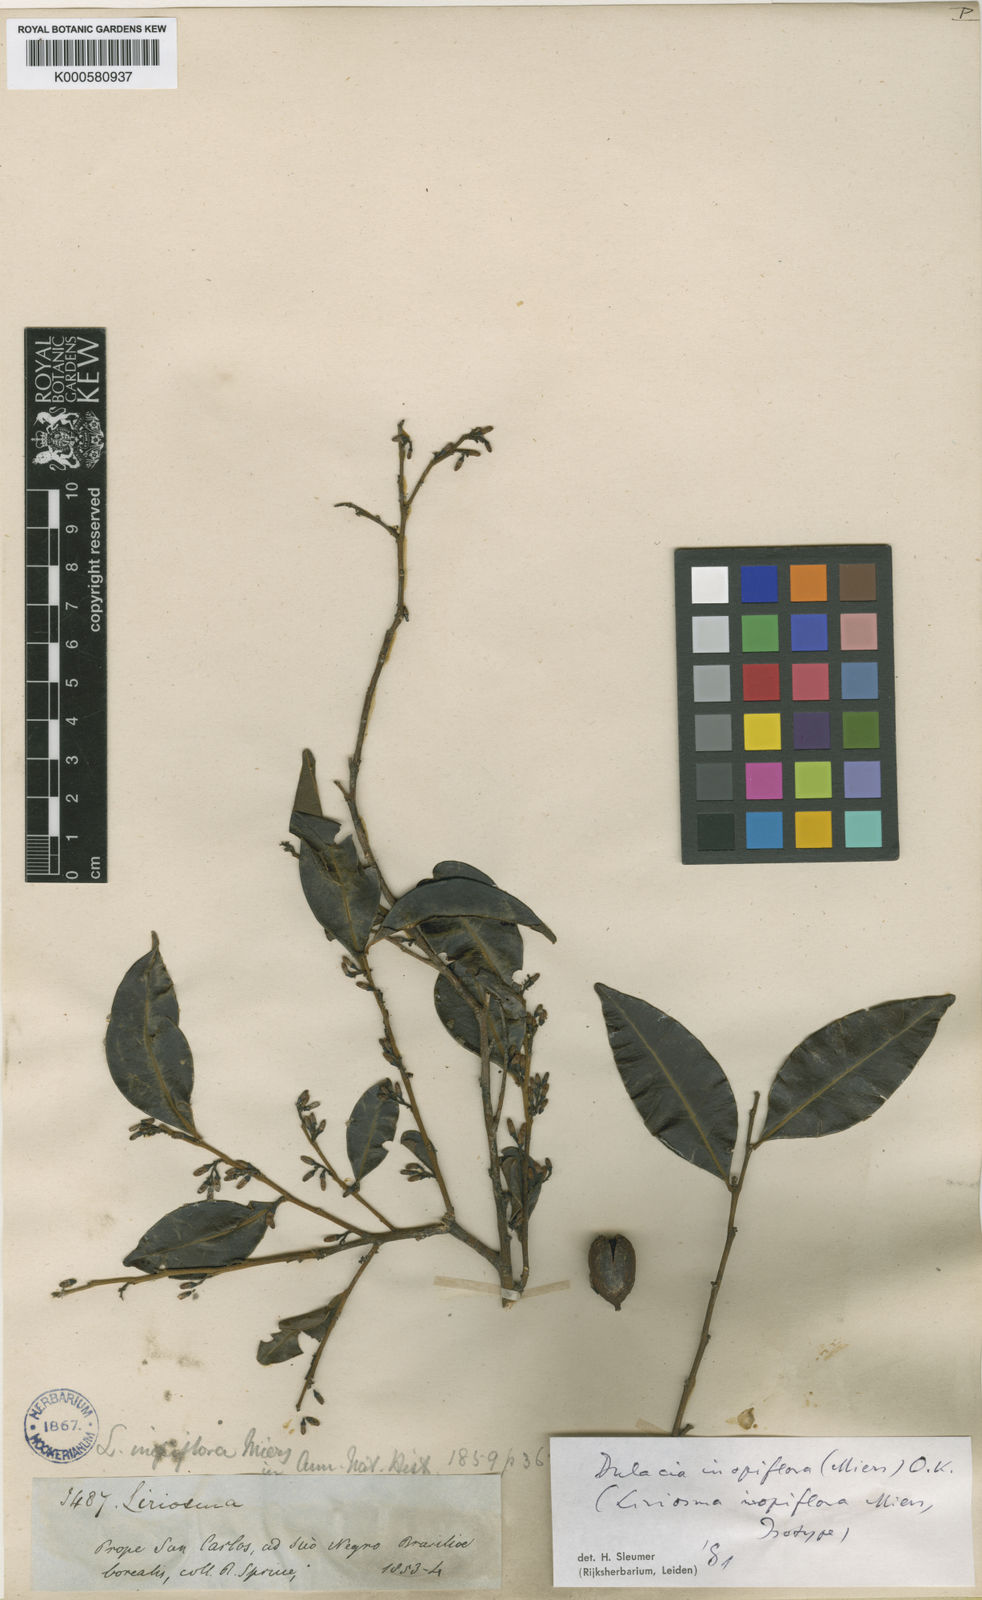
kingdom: Plantae
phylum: Tracheophyta
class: Magnoliopsida
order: Santalales
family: Olacaceae
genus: Dulacia
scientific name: Dulacia inopiflora
